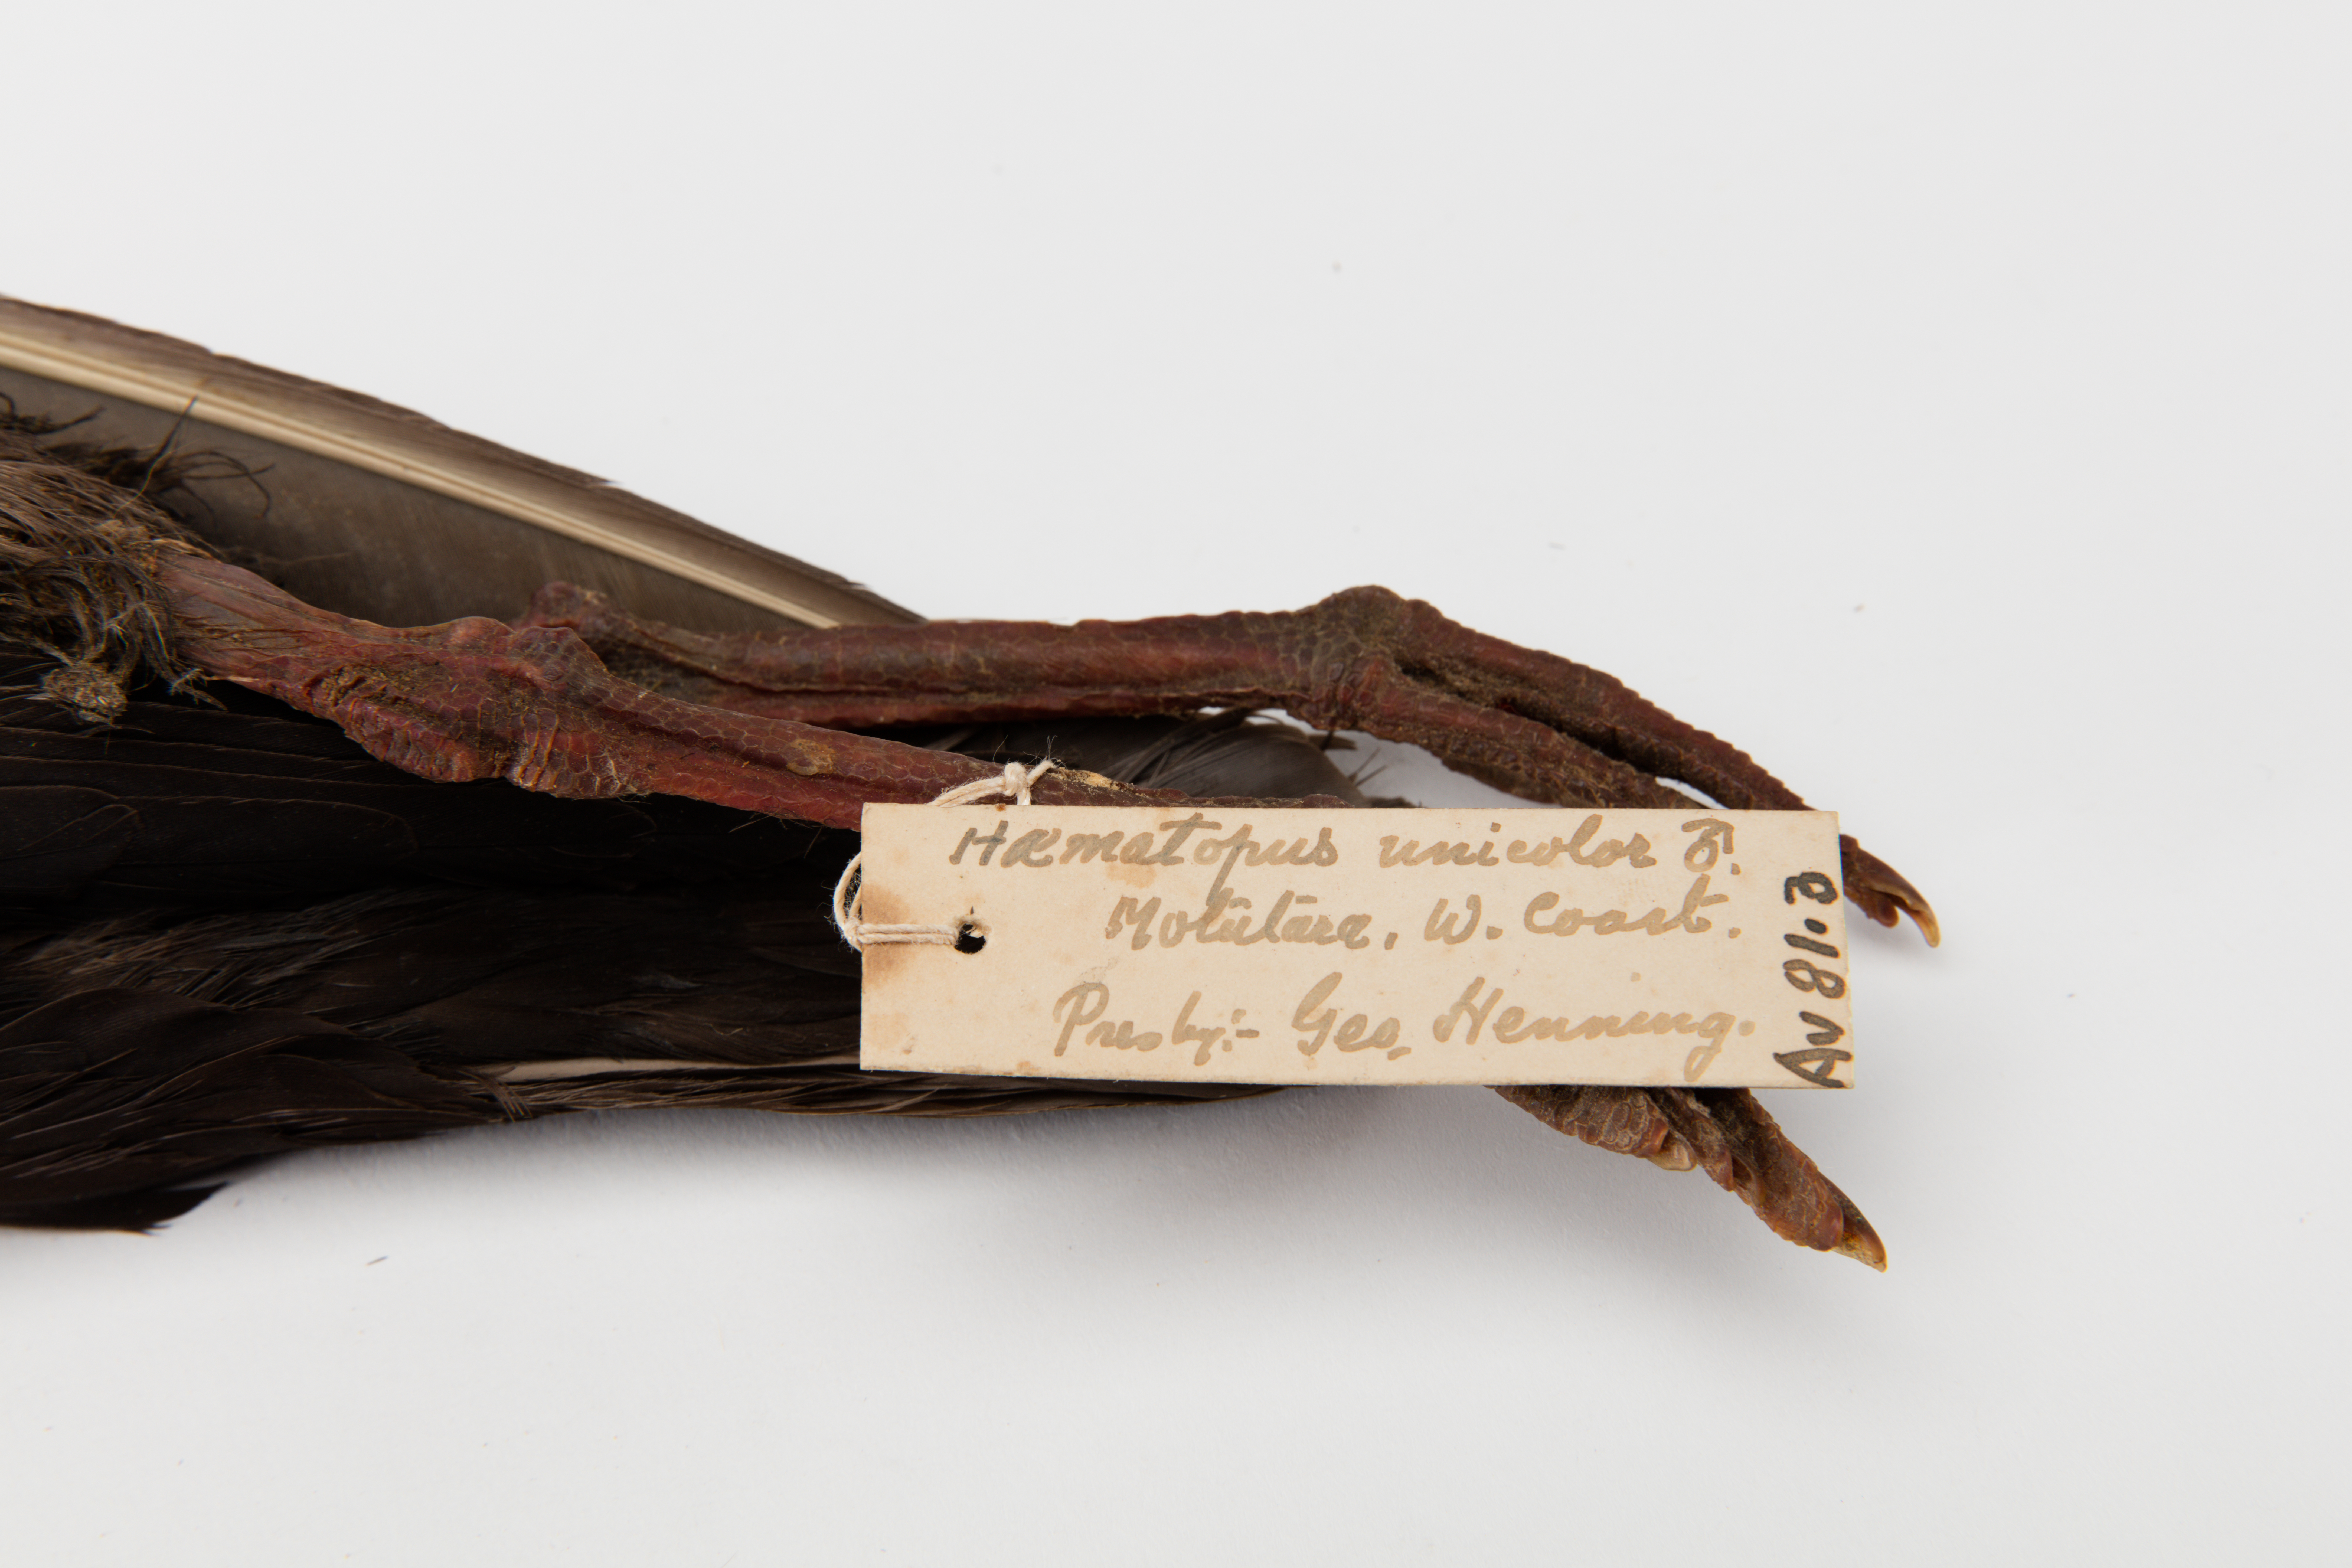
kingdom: Animalia
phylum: Chordata
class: Aves
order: Charadriiformes
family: Haematopodidae
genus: Haematopus
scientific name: Haematopus unicolor
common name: Variable oystercatcher
